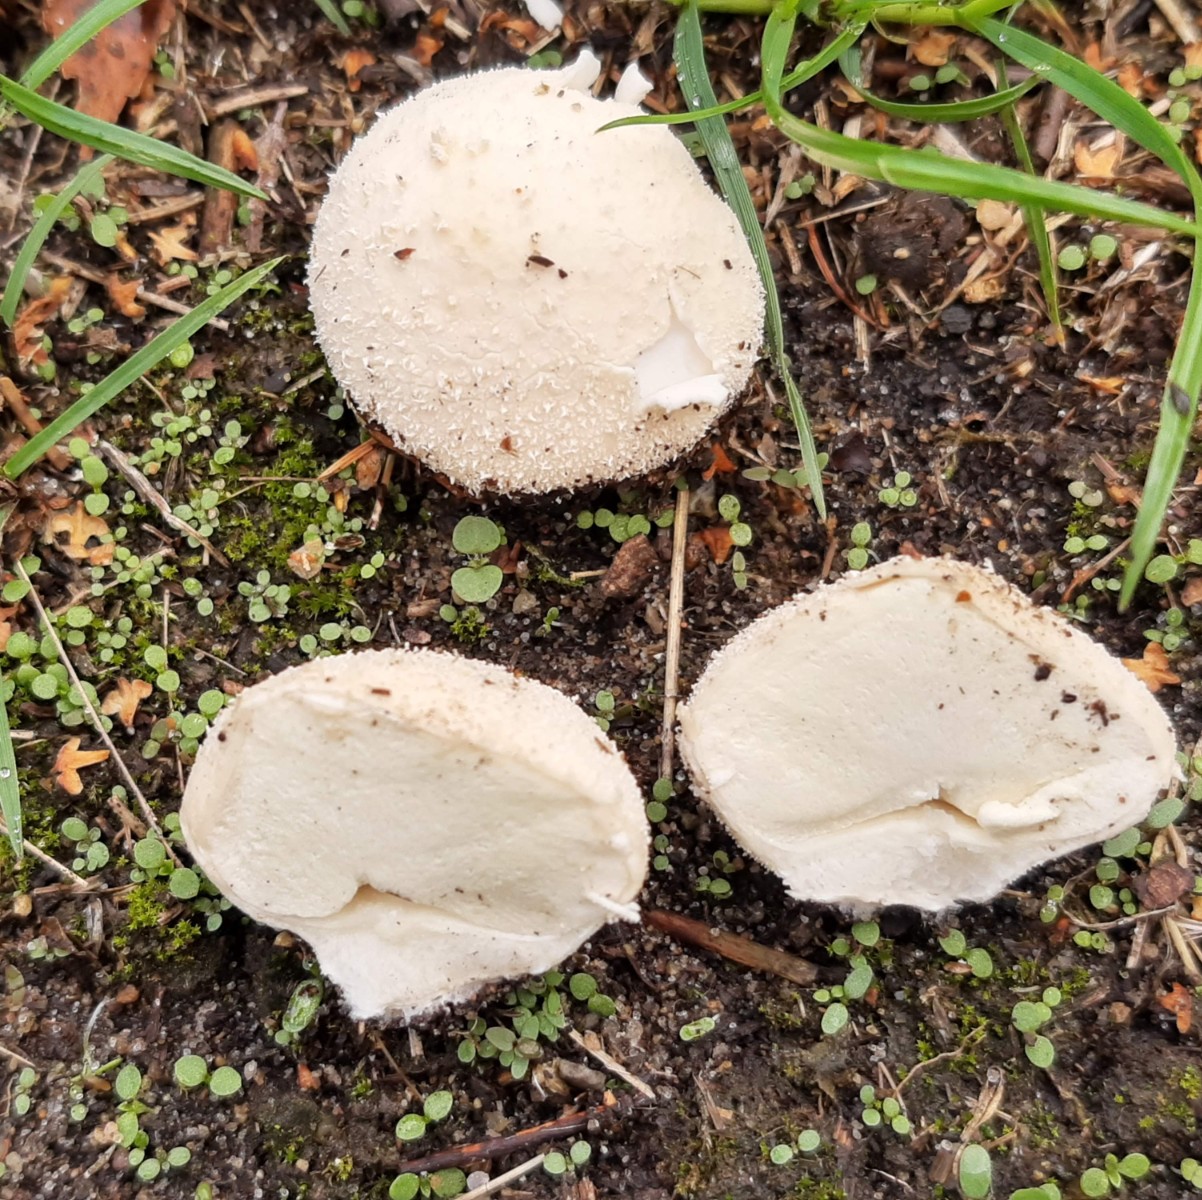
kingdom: Fungi
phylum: Basidiomycota
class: Agaricomycetes
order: Agaricales
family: Lycoperdaceae
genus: Lycoperdon
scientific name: Lycoperdon pratense
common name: flad støvbold
